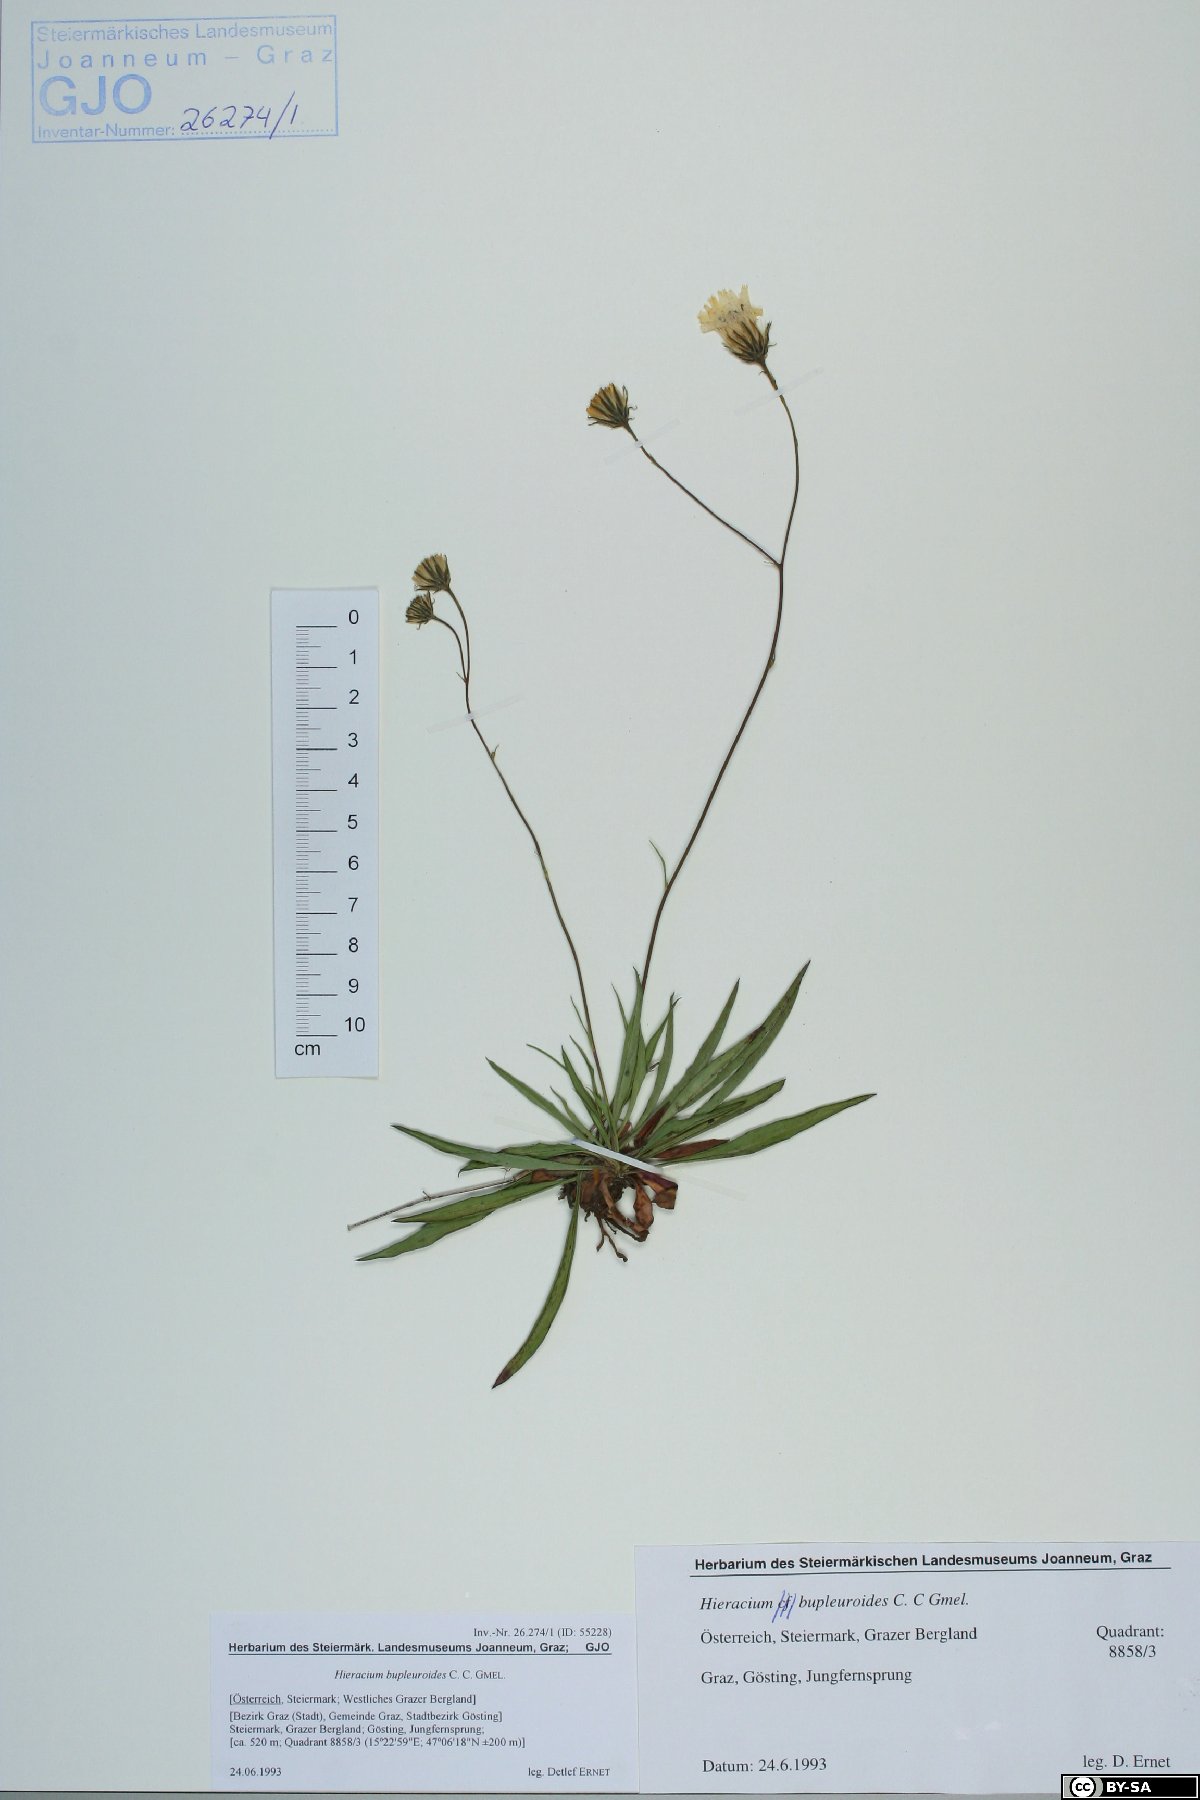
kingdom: Plantae
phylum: Tracheophyta
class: Magnoliopsida
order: Asterales
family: Asteraceae
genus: Hieracium
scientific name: Hieracium bupleuroides
